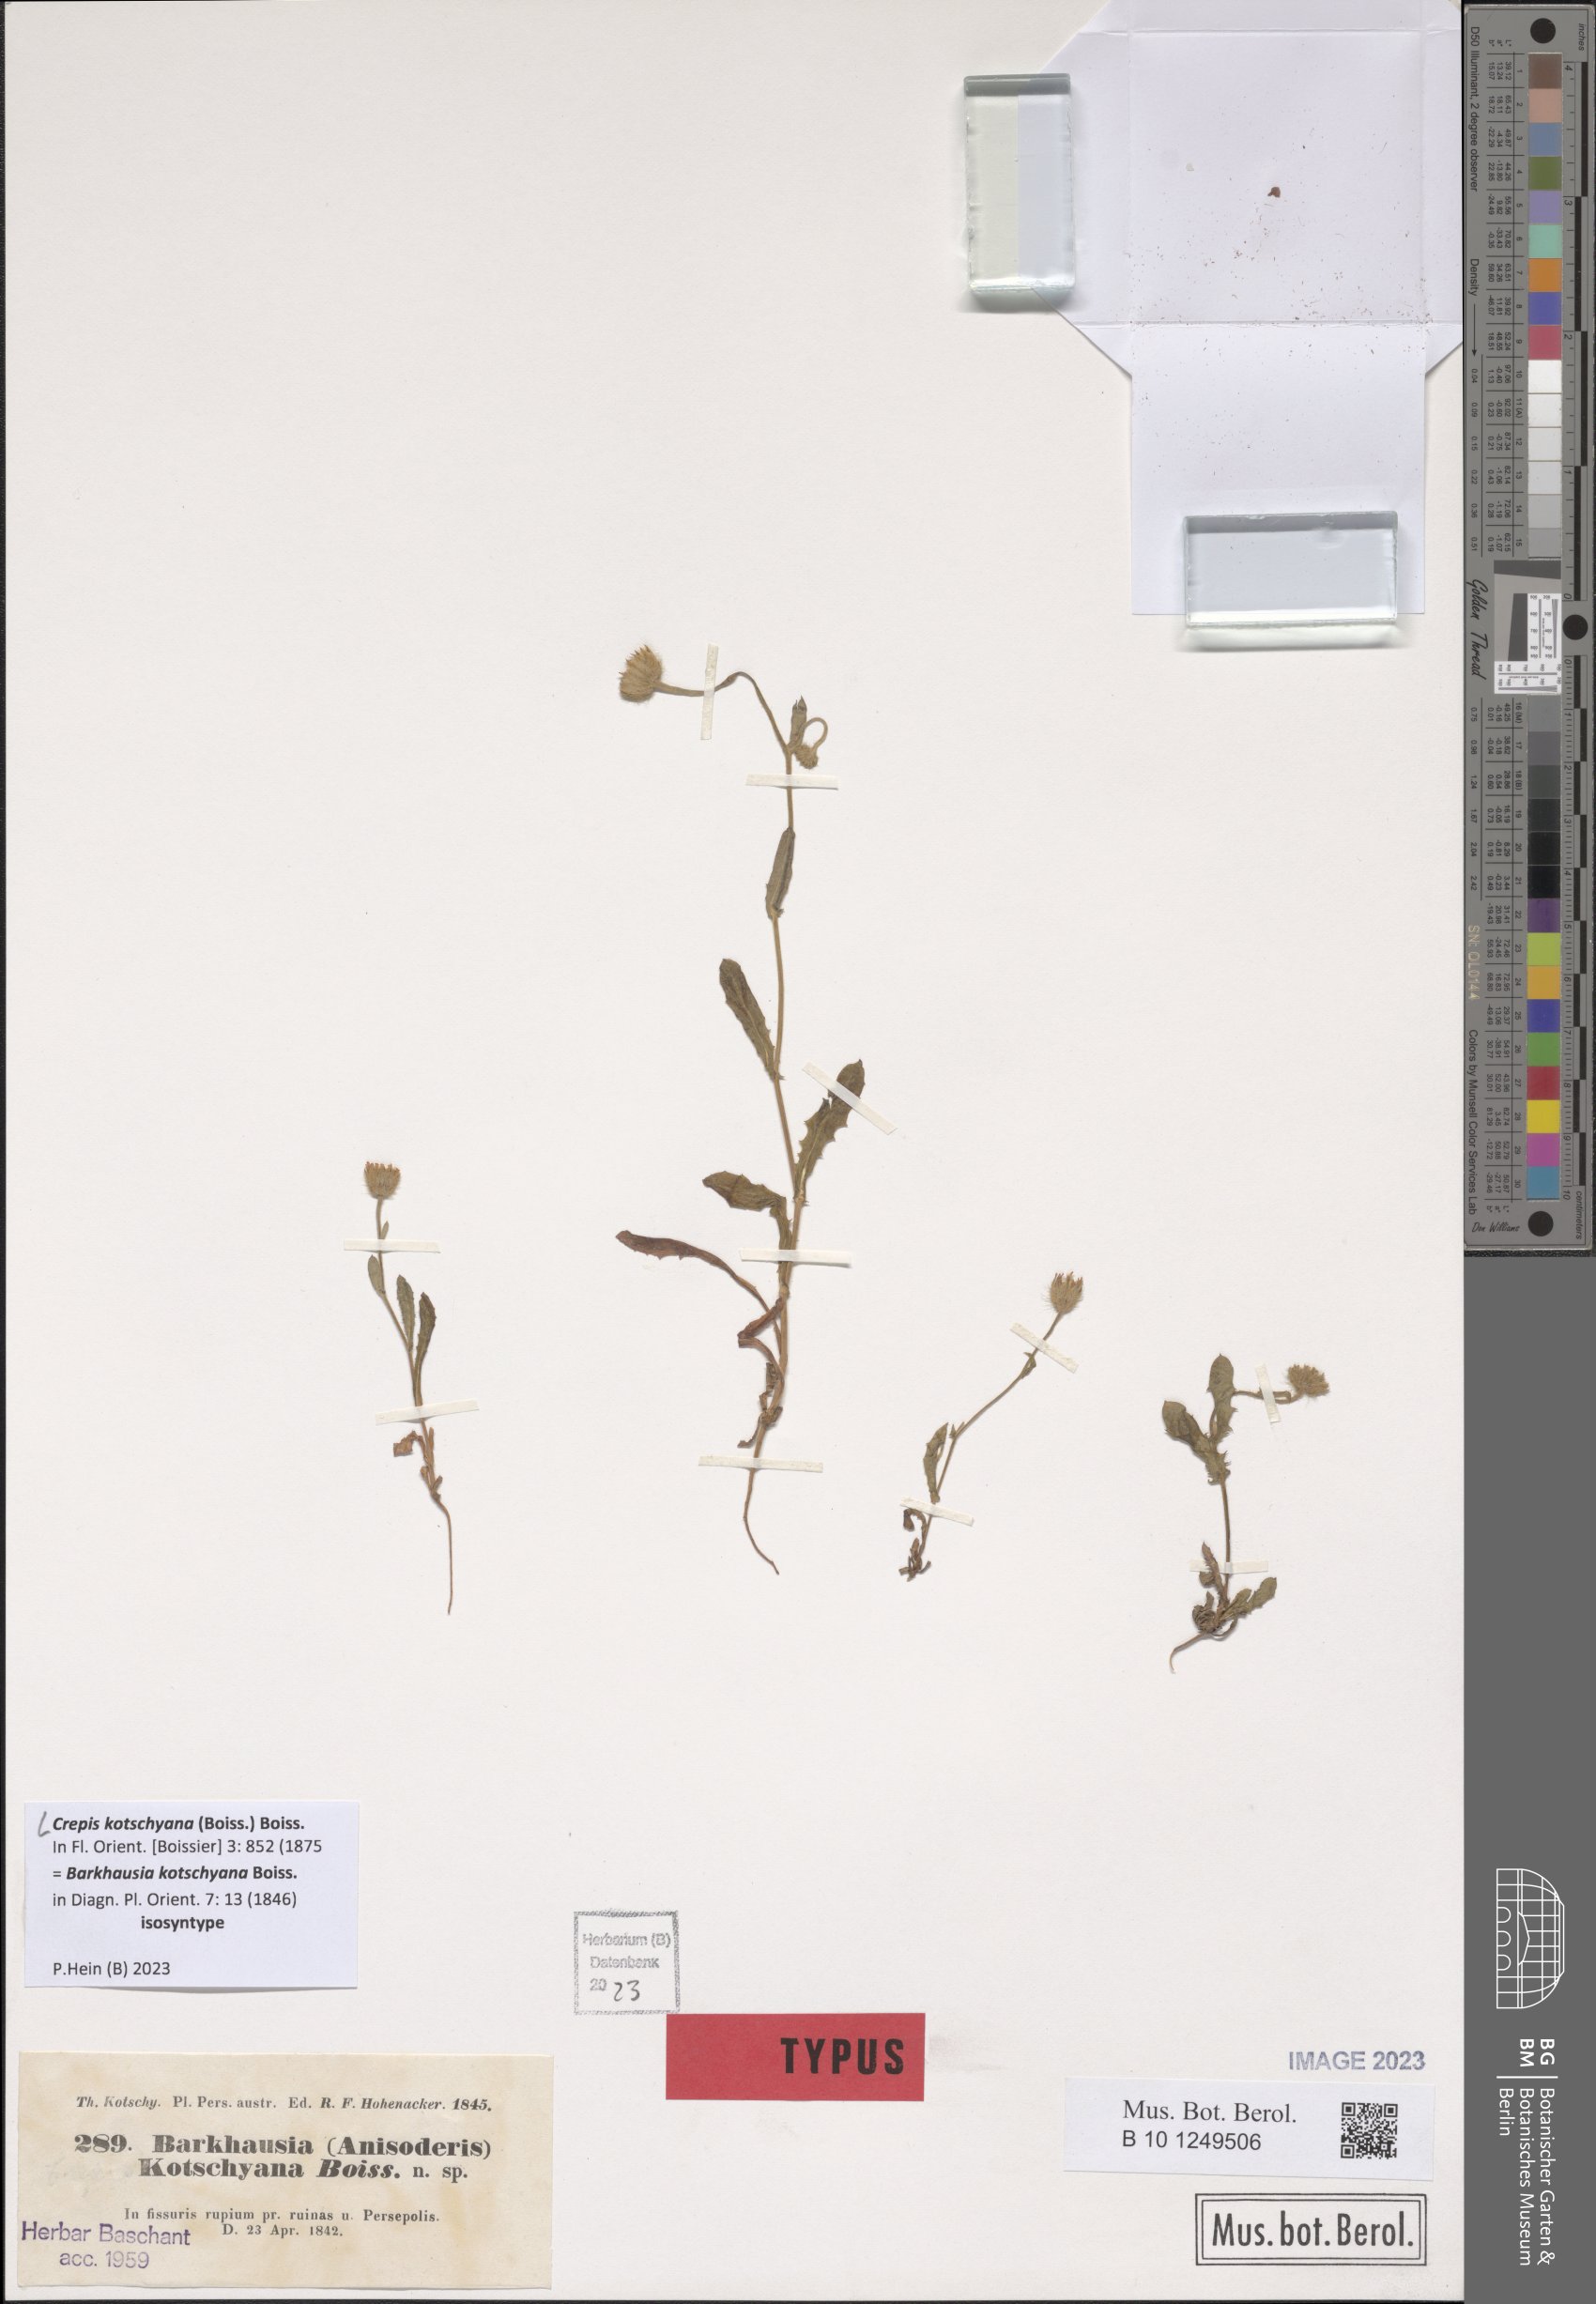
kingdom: Plantae
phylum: Tracheophyta
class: Magnoliopsida
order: Asterales
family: Asteraceae
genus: Crepis
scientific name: Crepis kotschyana
